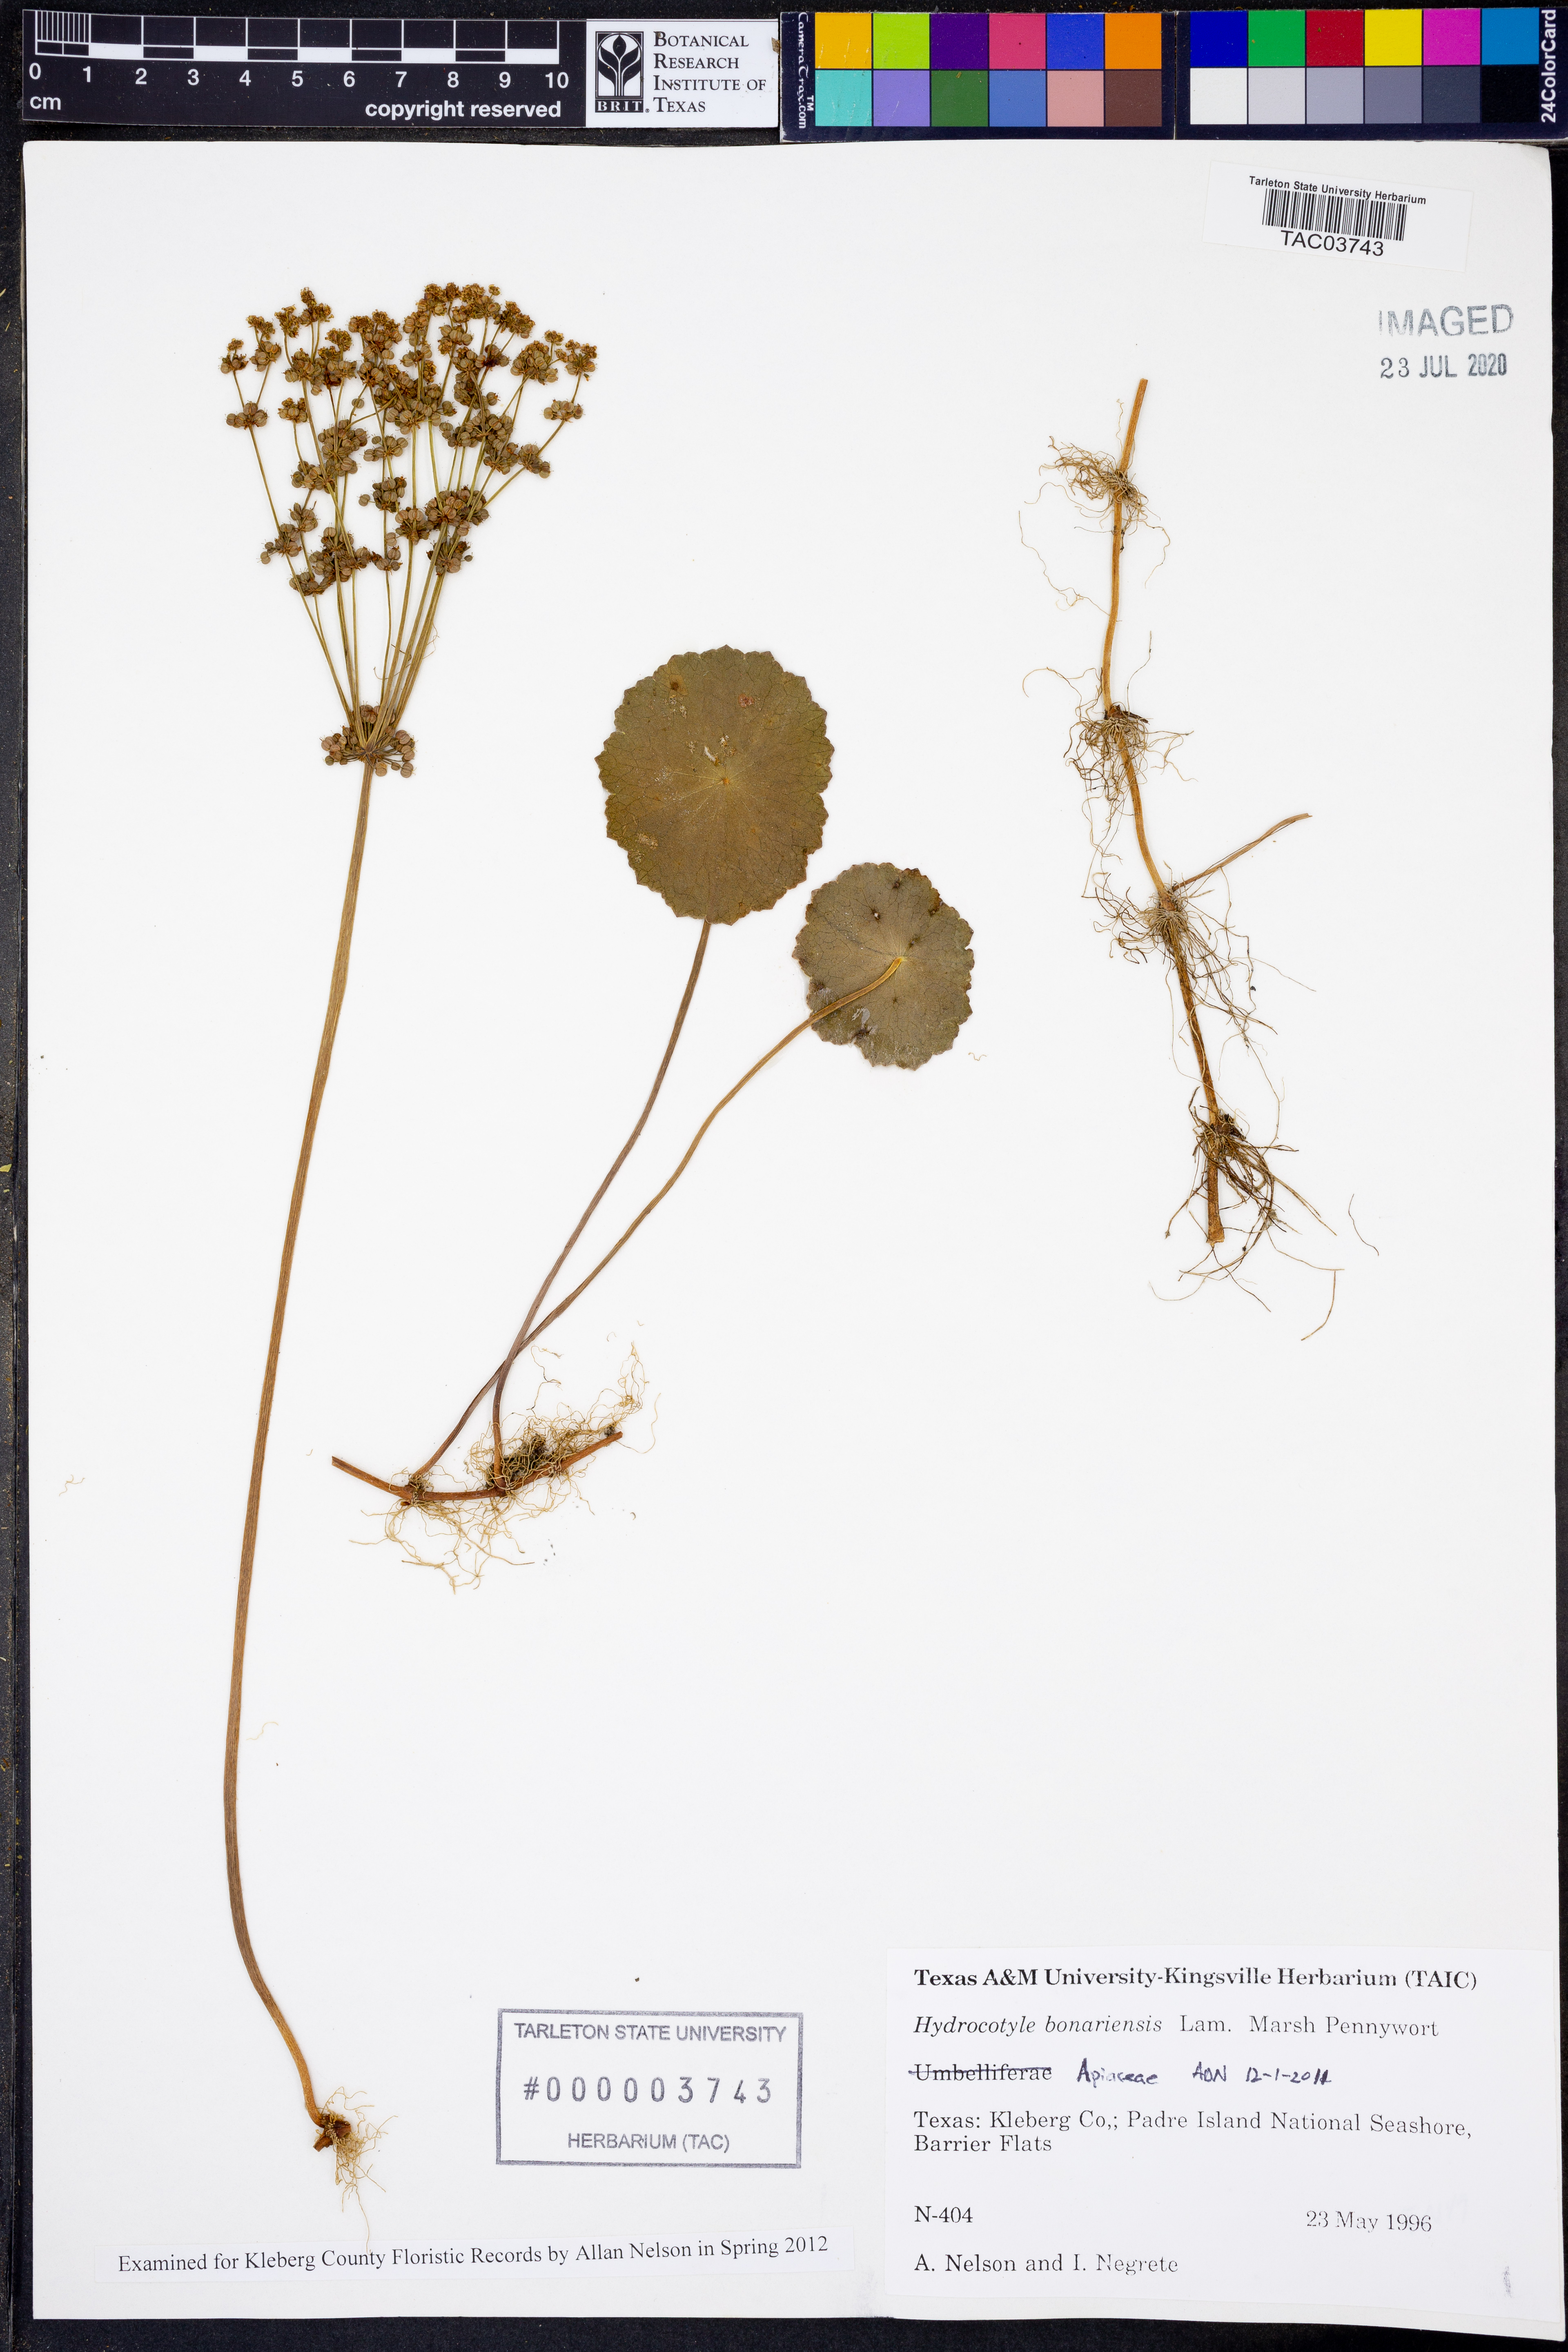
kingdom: Plantae
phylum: Tracheophyta
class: Magnoliopsida
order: Apiales
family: Araliaceae
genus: Hydrocotyle
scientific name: Hydrocotyle bonariensis
